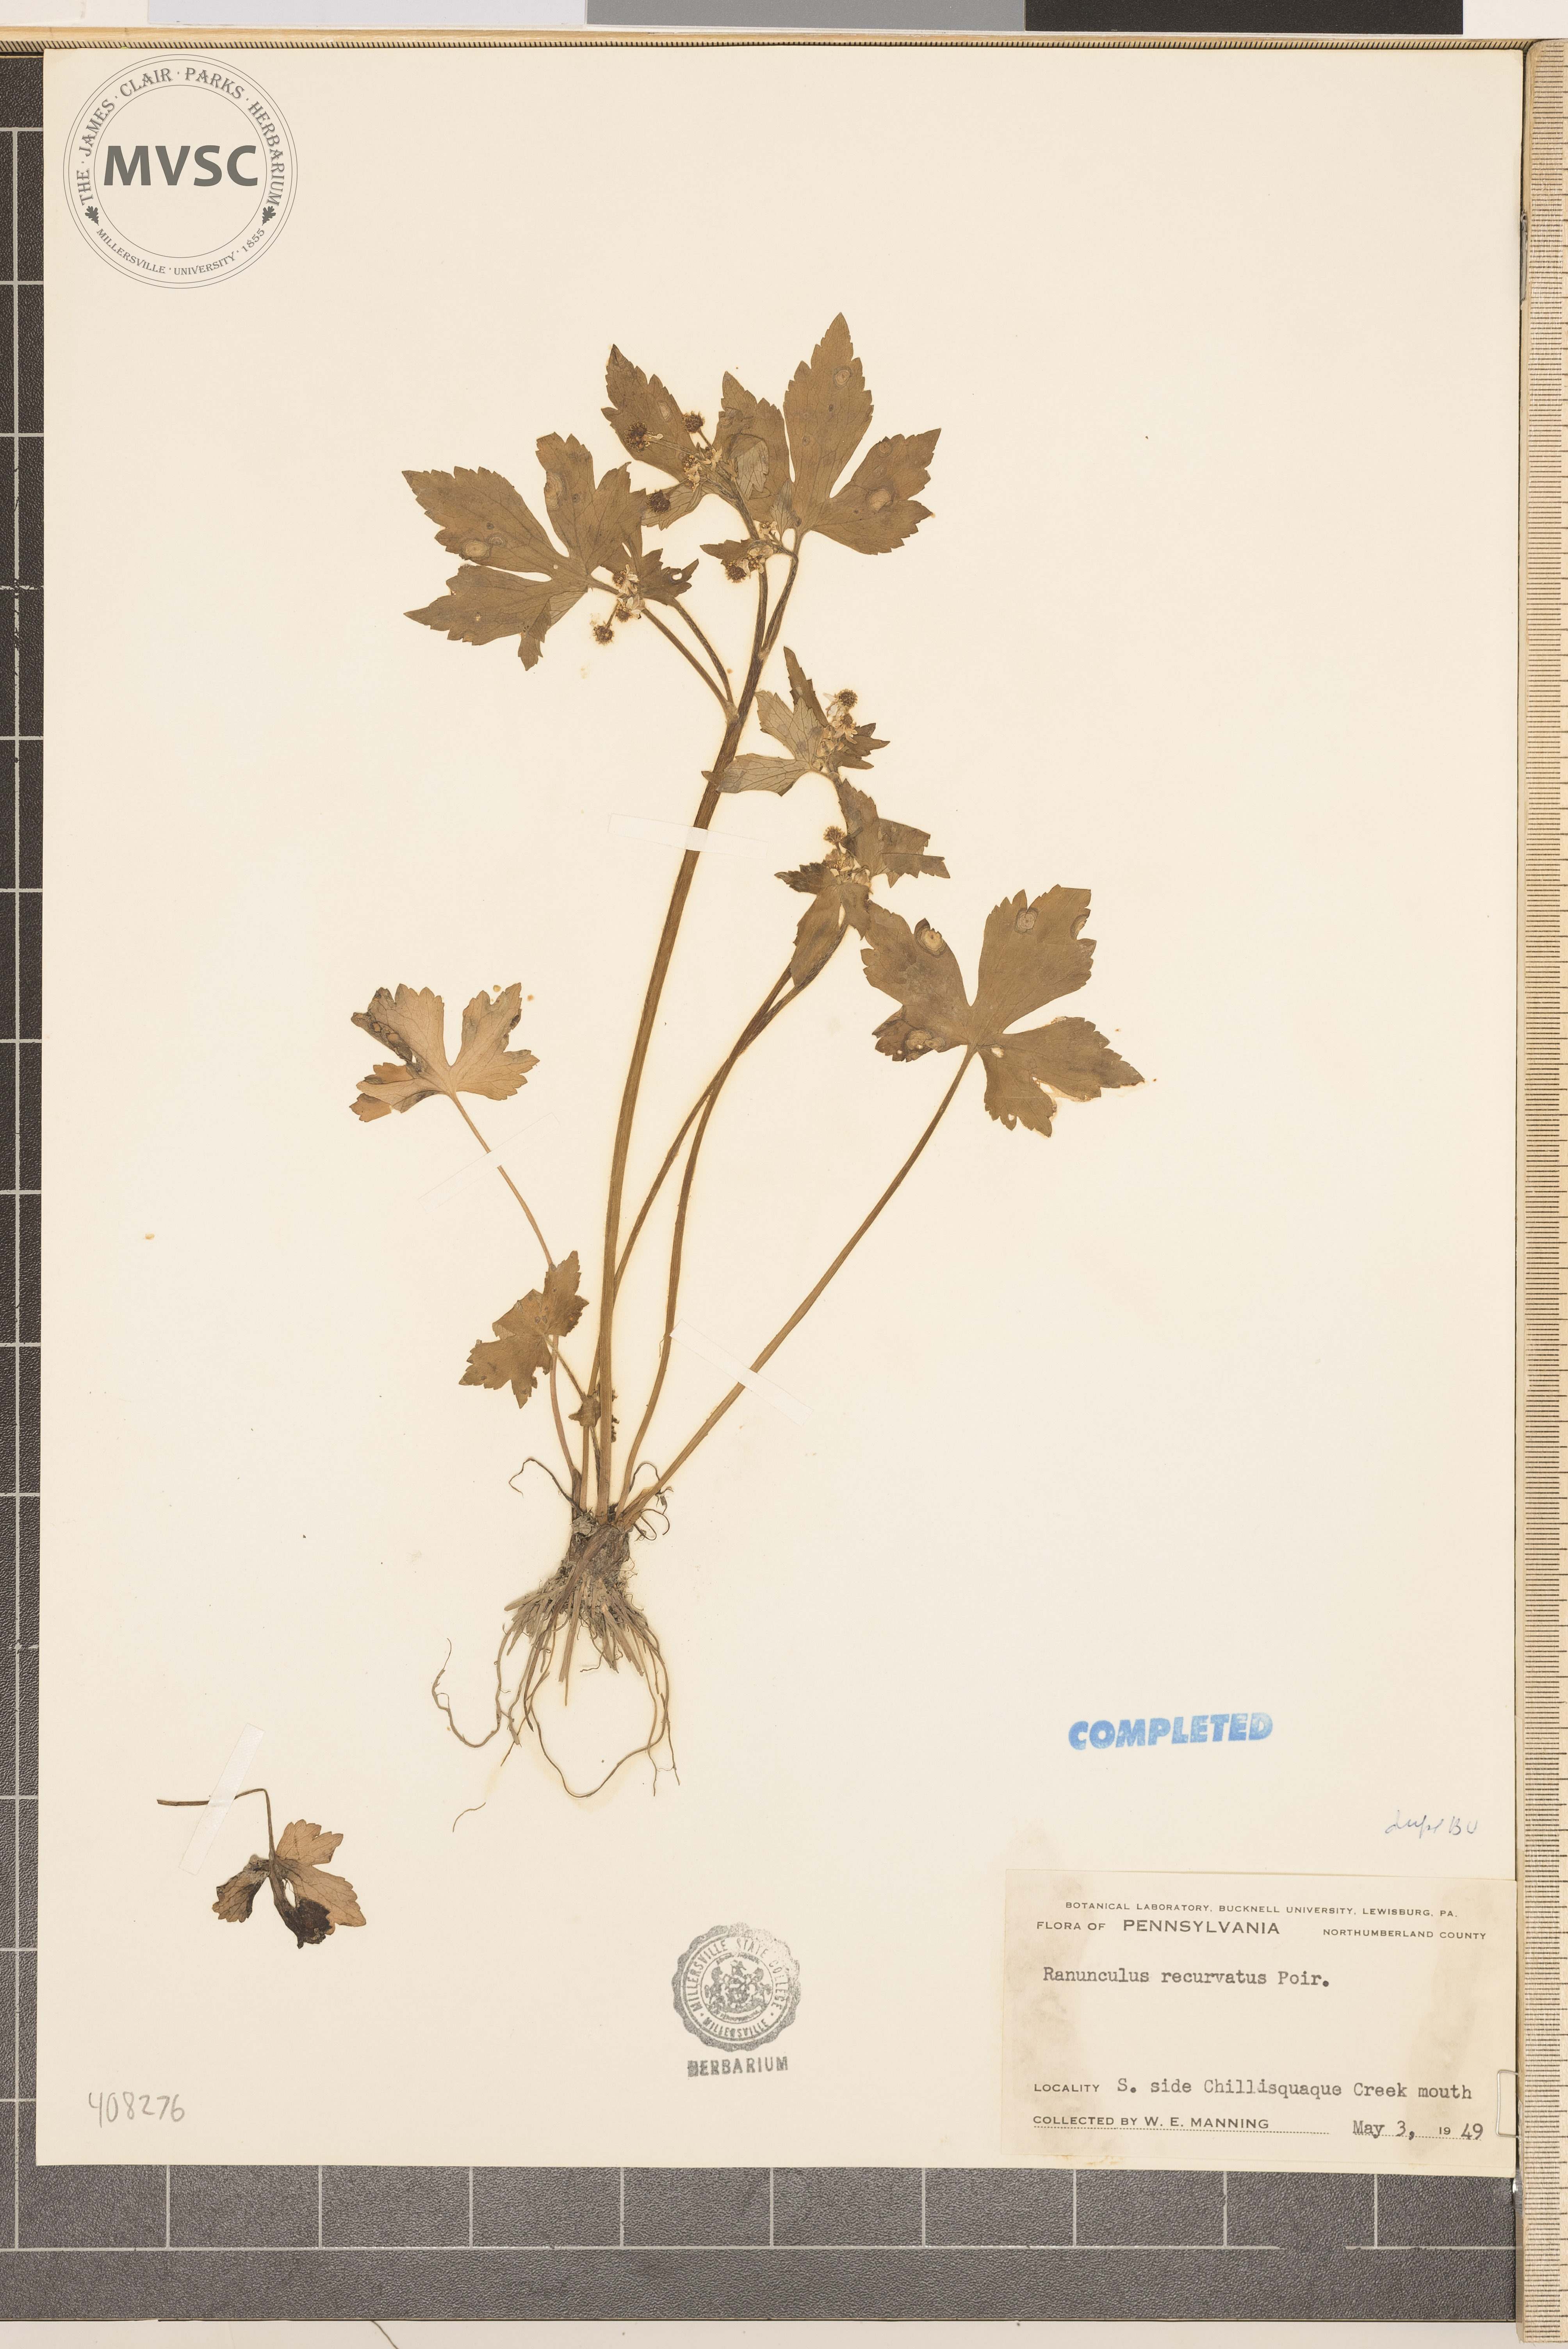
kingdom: Plantae
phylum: Tracheophyta
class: Magnoliopsida
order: Ranunculales
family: Ranunculaceae
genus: Ranunculus
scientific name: Ranunculus recurvatus
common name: Blisterwort
